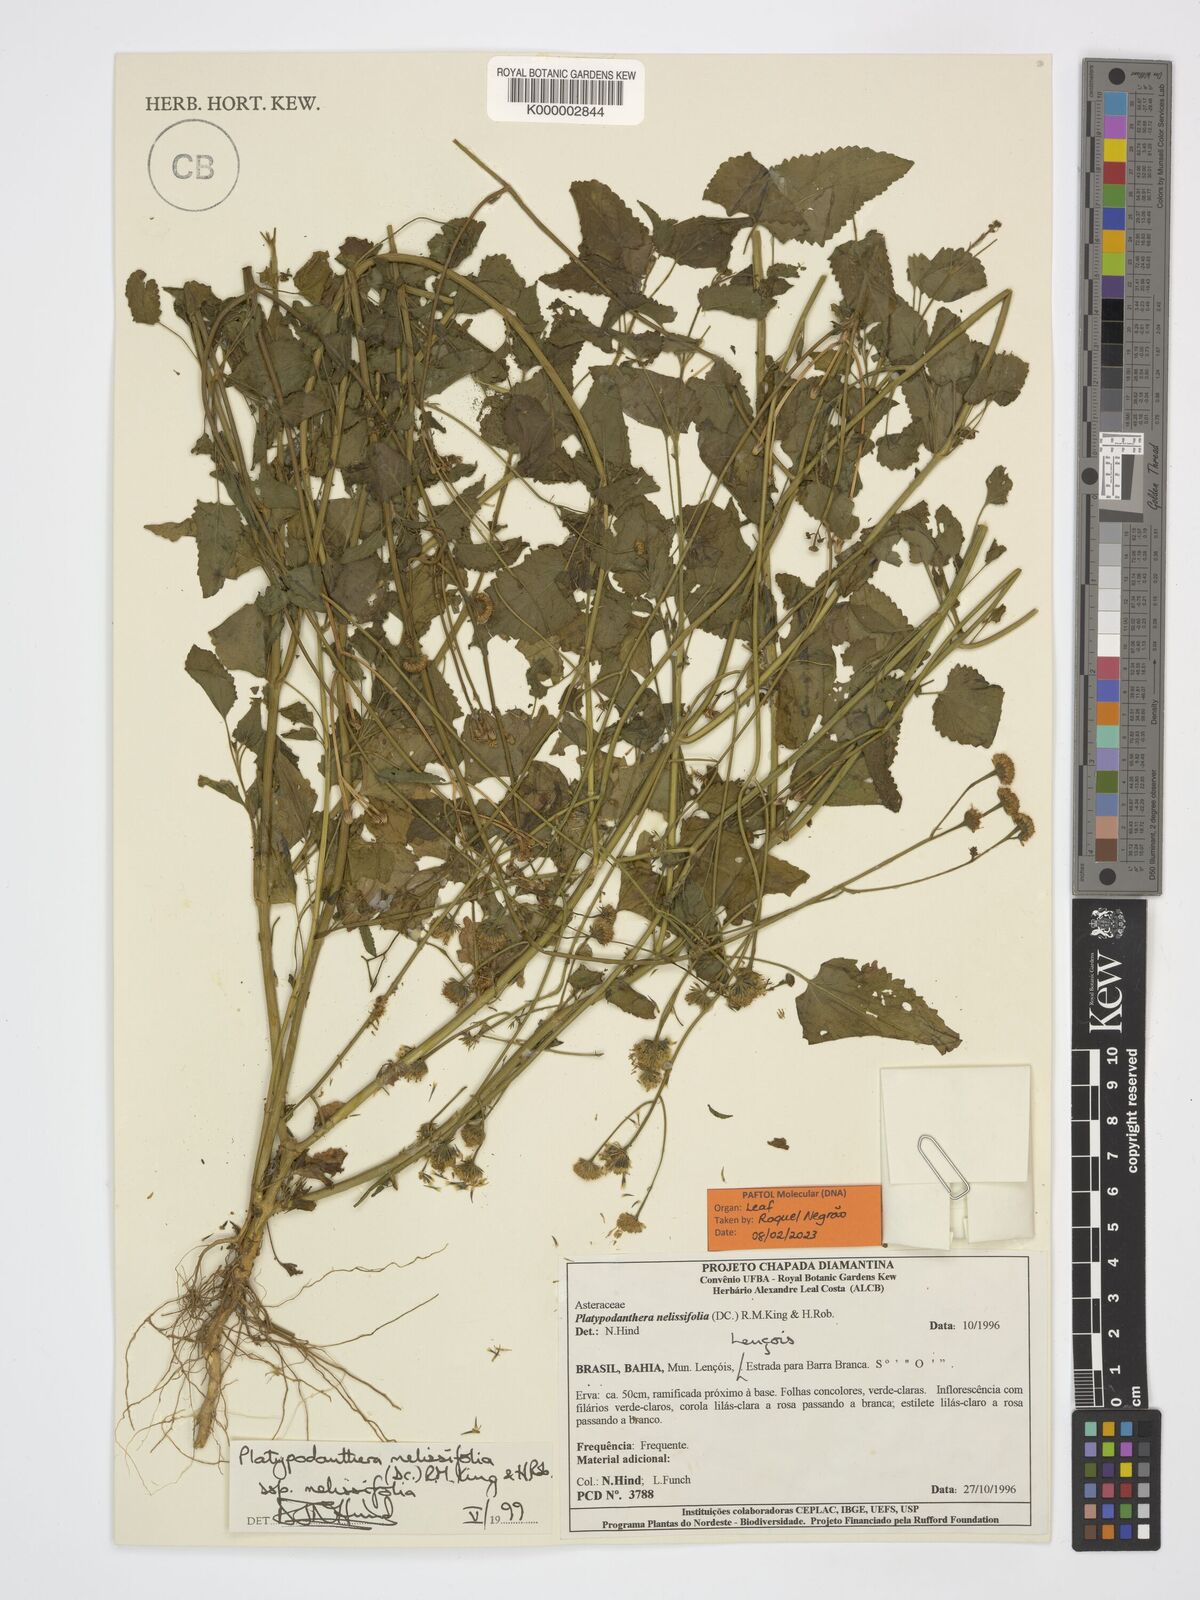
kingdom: Plantae
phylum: Tracheophyta
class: Magnoliopsida
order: Asterales
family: Asteraceae
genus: Platypodanthera
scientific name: Platypodanthera melissifolia
